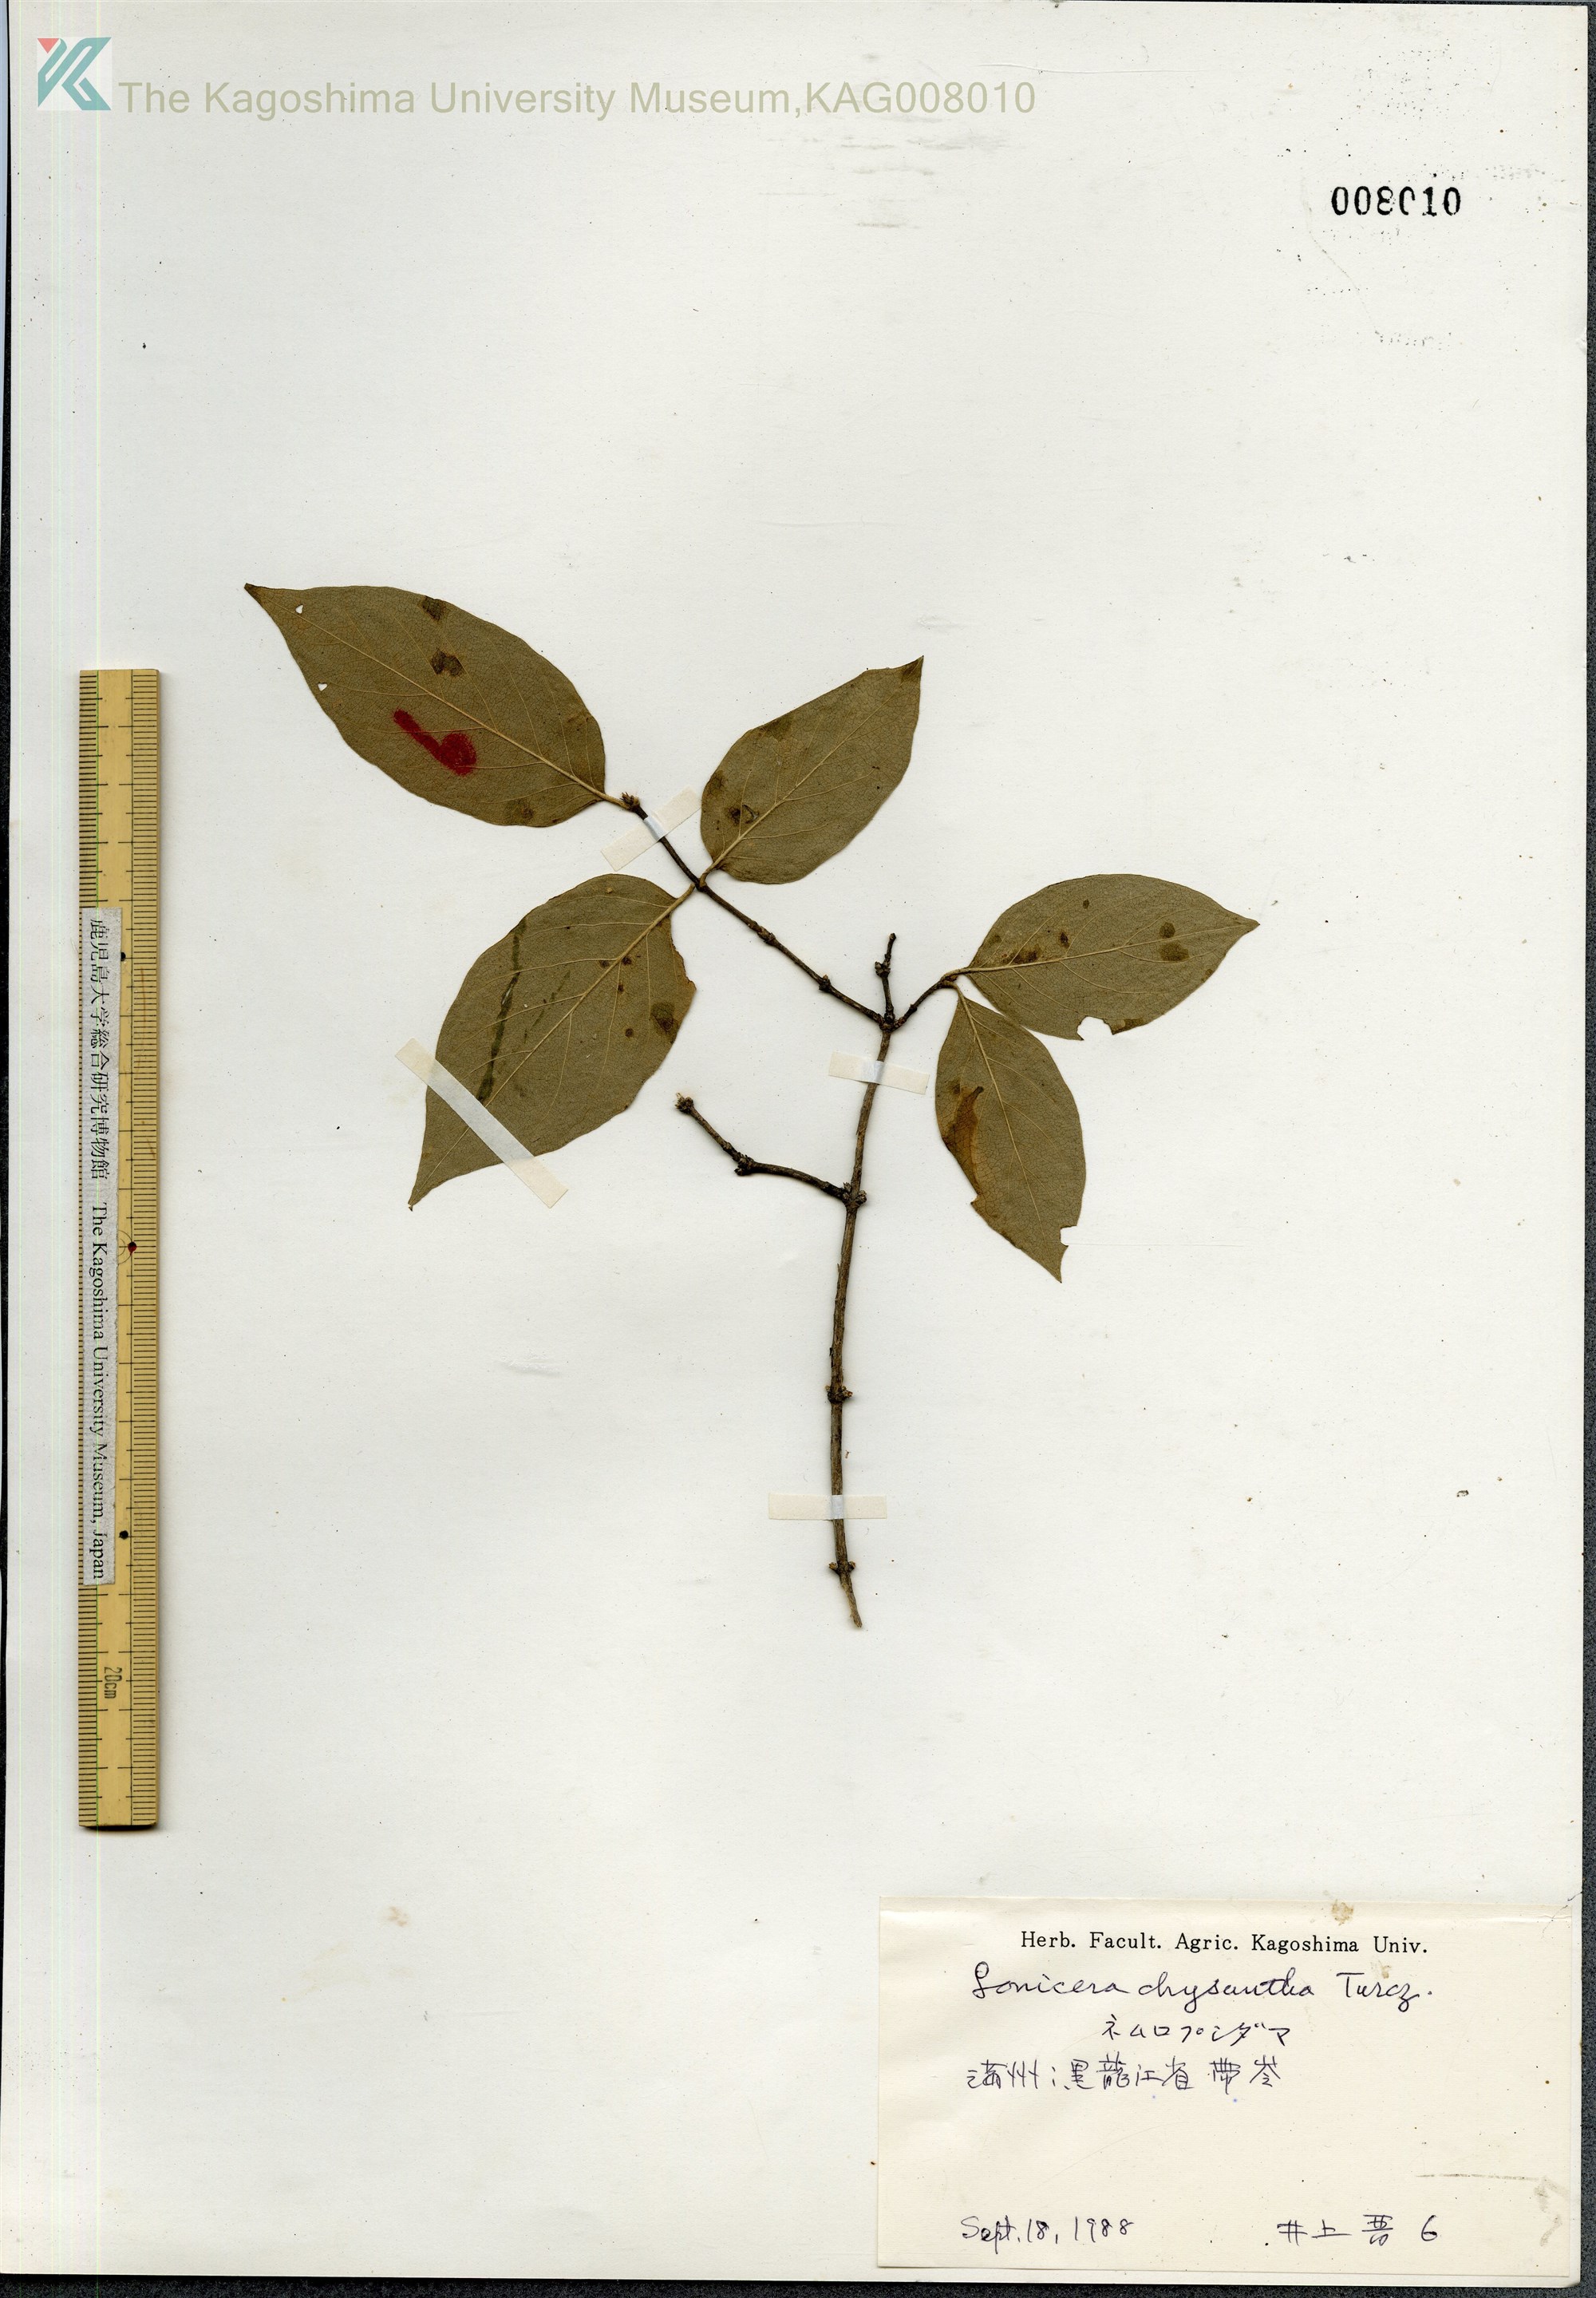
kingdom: Plantae
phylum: Tracheophyta
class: Magnoliopsida
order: Dipsacales
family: Caprifoliaceae
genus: Lonicera
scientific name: Lonicera chrysantha
